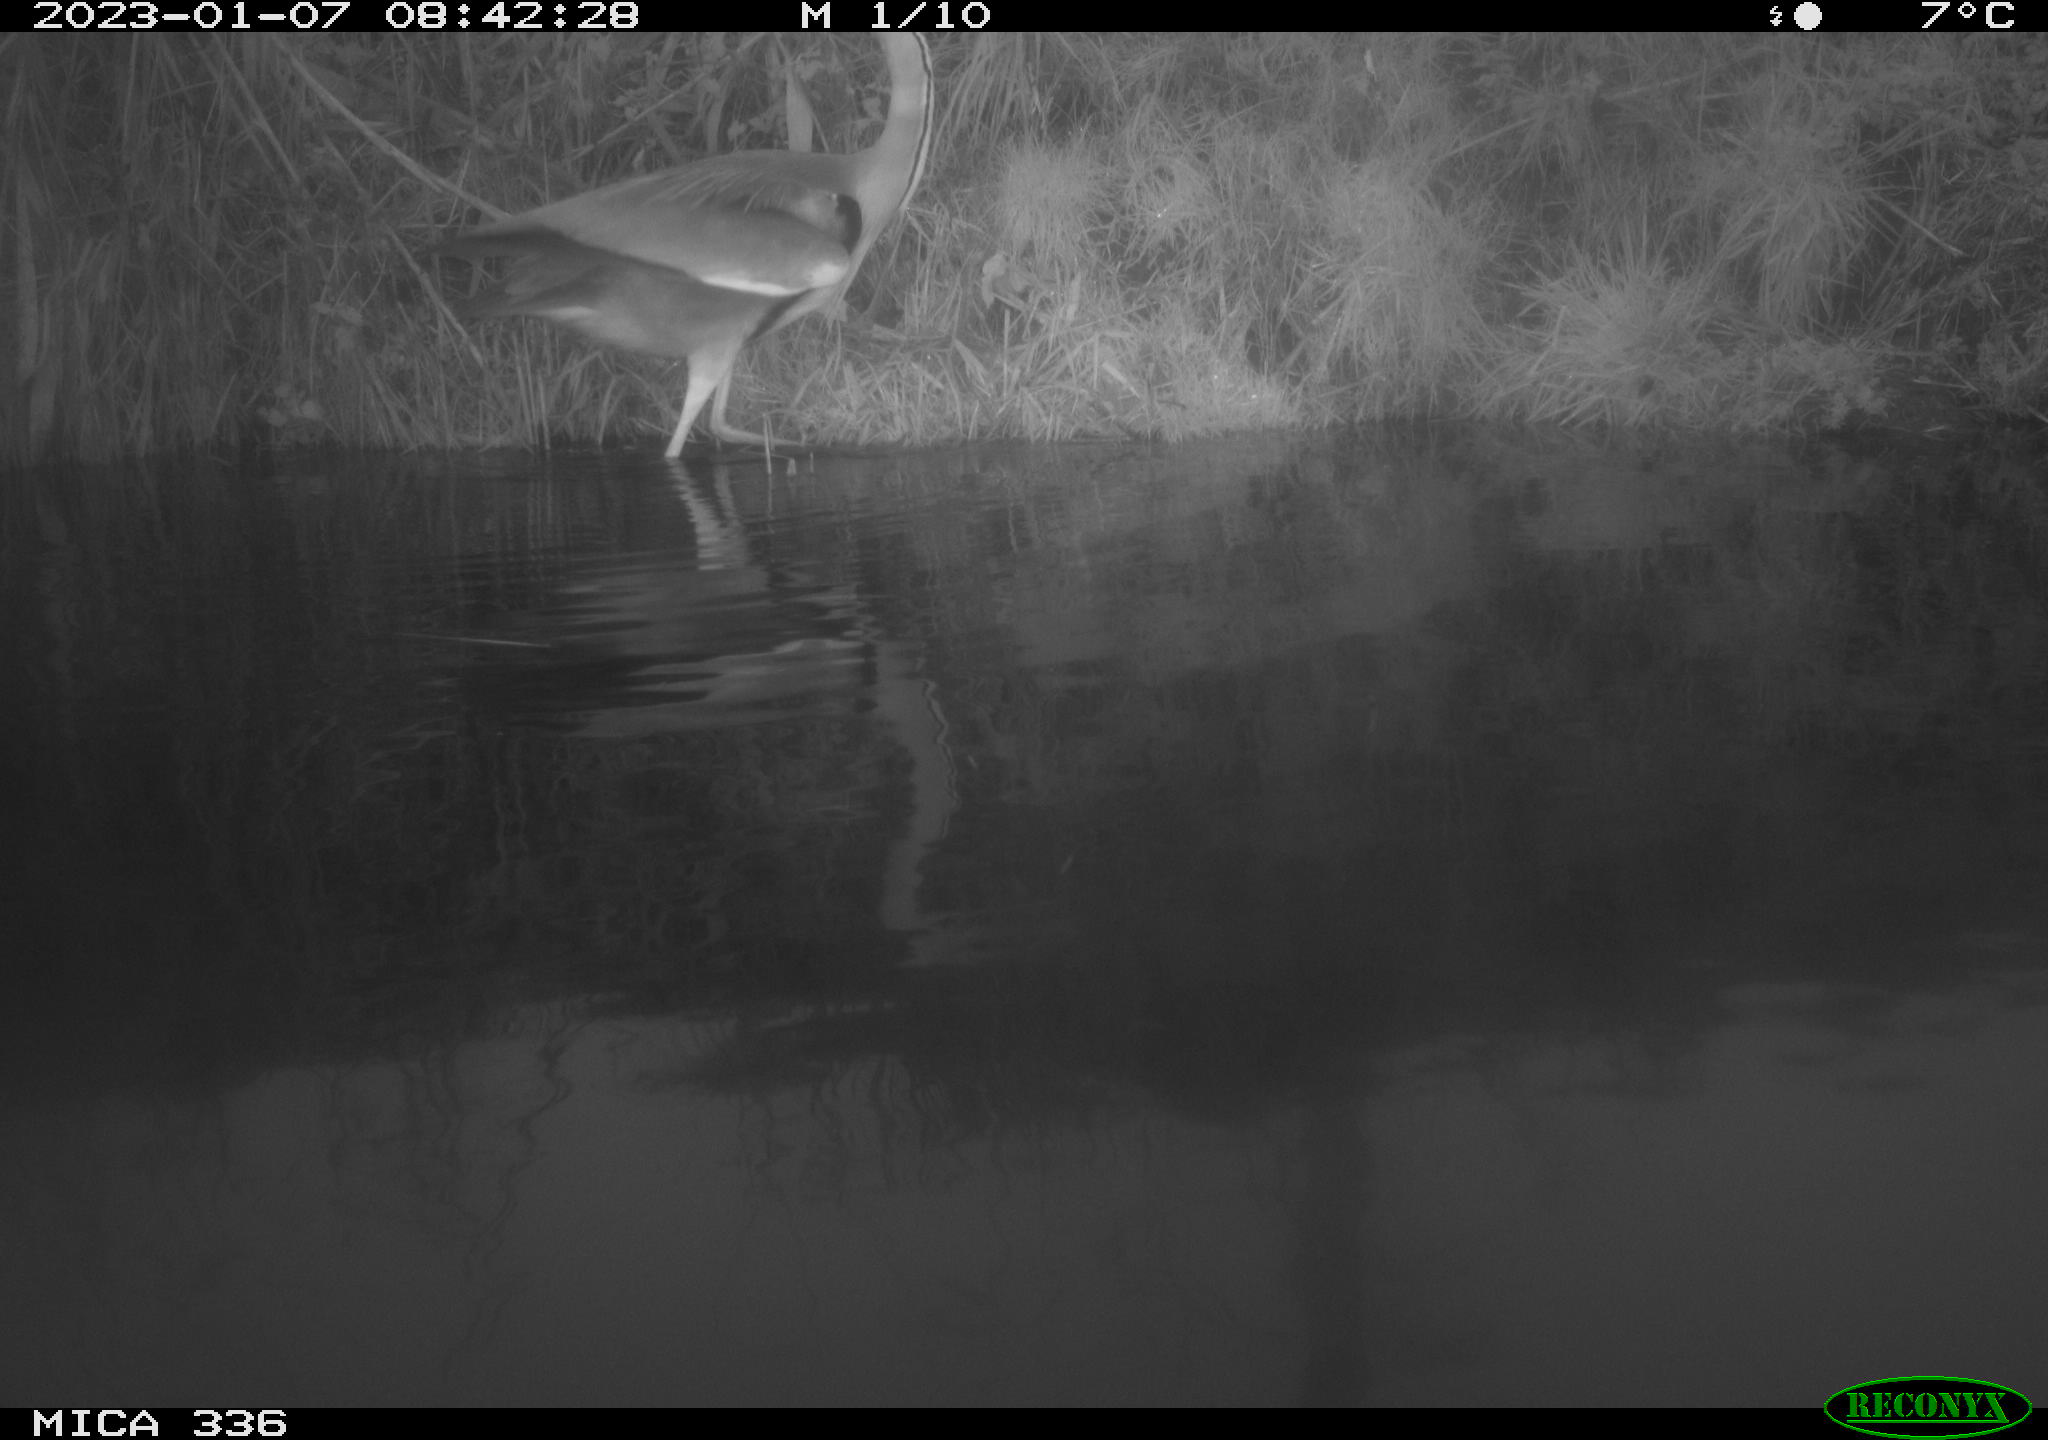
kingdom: Animalia
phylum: Chordata
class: Aves
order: Pelecaniformes
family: Ardeidae
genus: Ardea
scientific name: Ardea cinerea
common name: Grey heron
